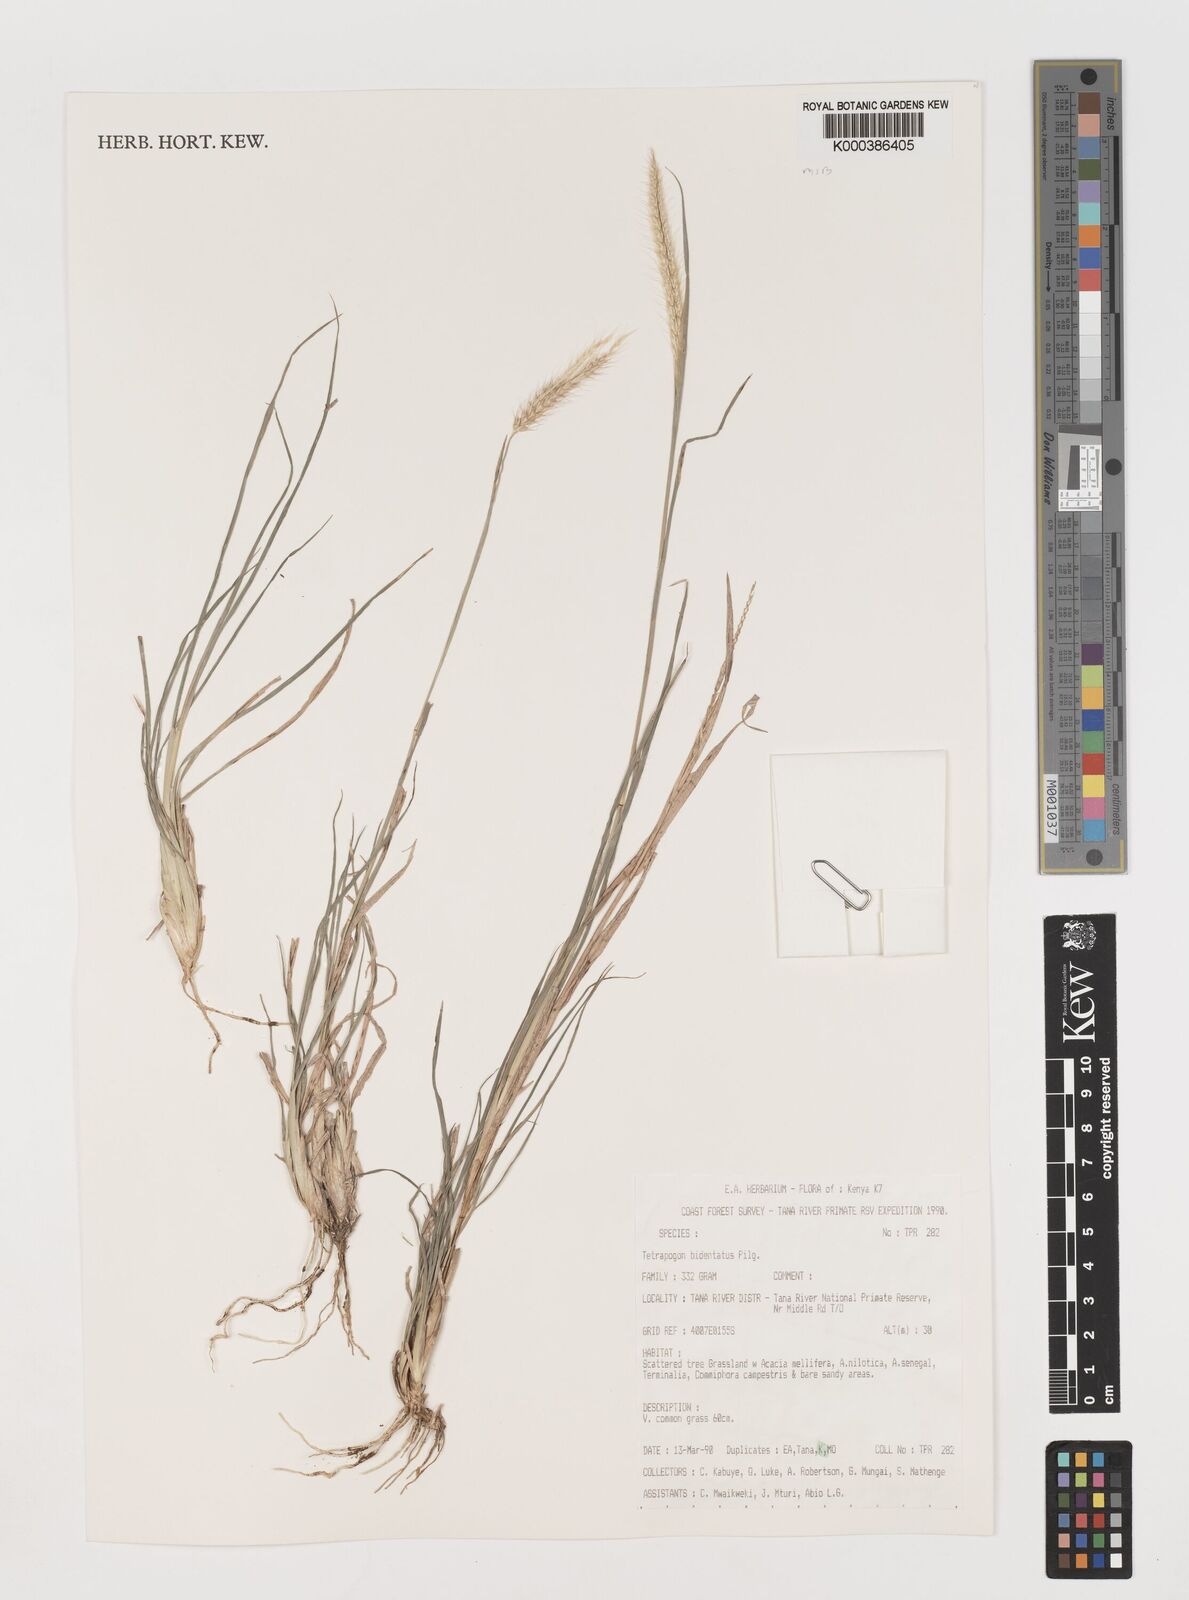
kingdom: Plantae
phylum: Tracheophyta
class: Liliopsida
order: Poales
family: Poaceae
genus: Tetrapogon
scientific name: Tetrapogon bidentatus
